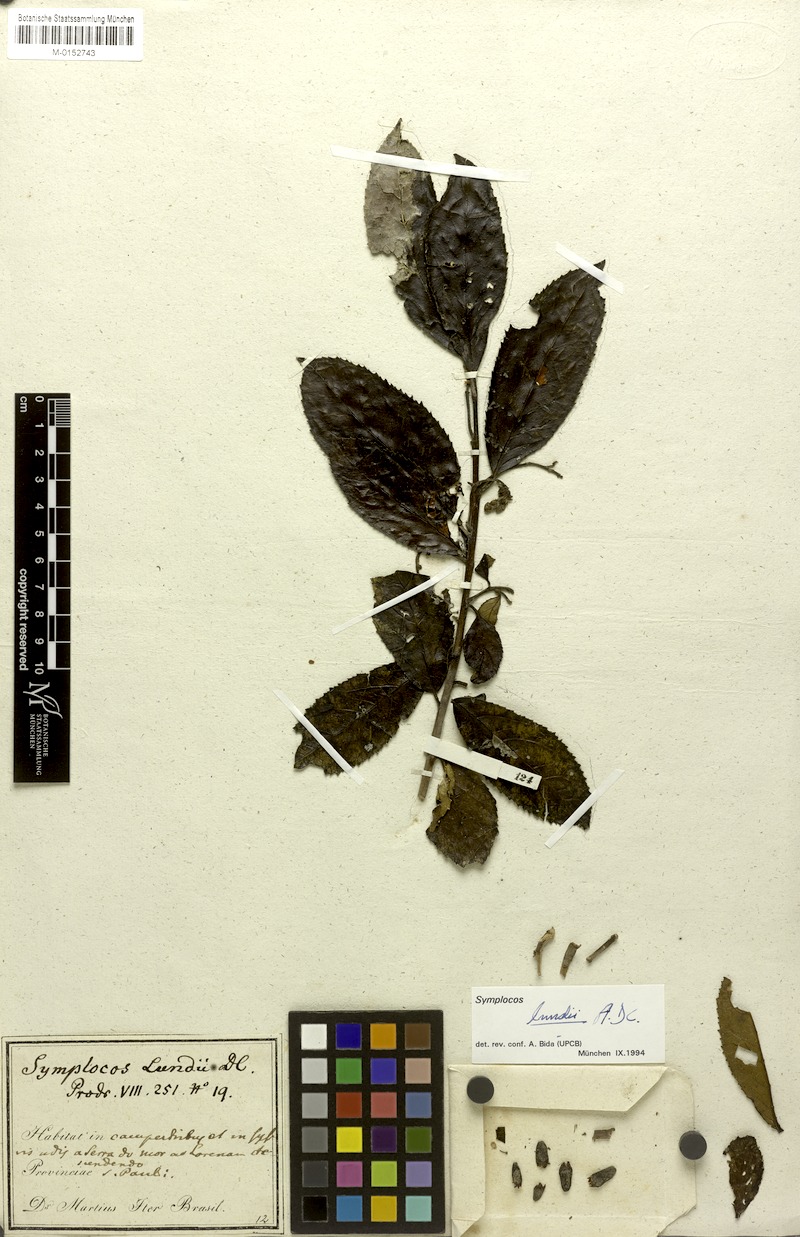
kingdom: Plantae
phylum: Tracheophyta
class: Magnoliopsida
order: Ericales
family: Symplocaceae
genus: Symplocos
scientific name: Symplocos platyphylla
